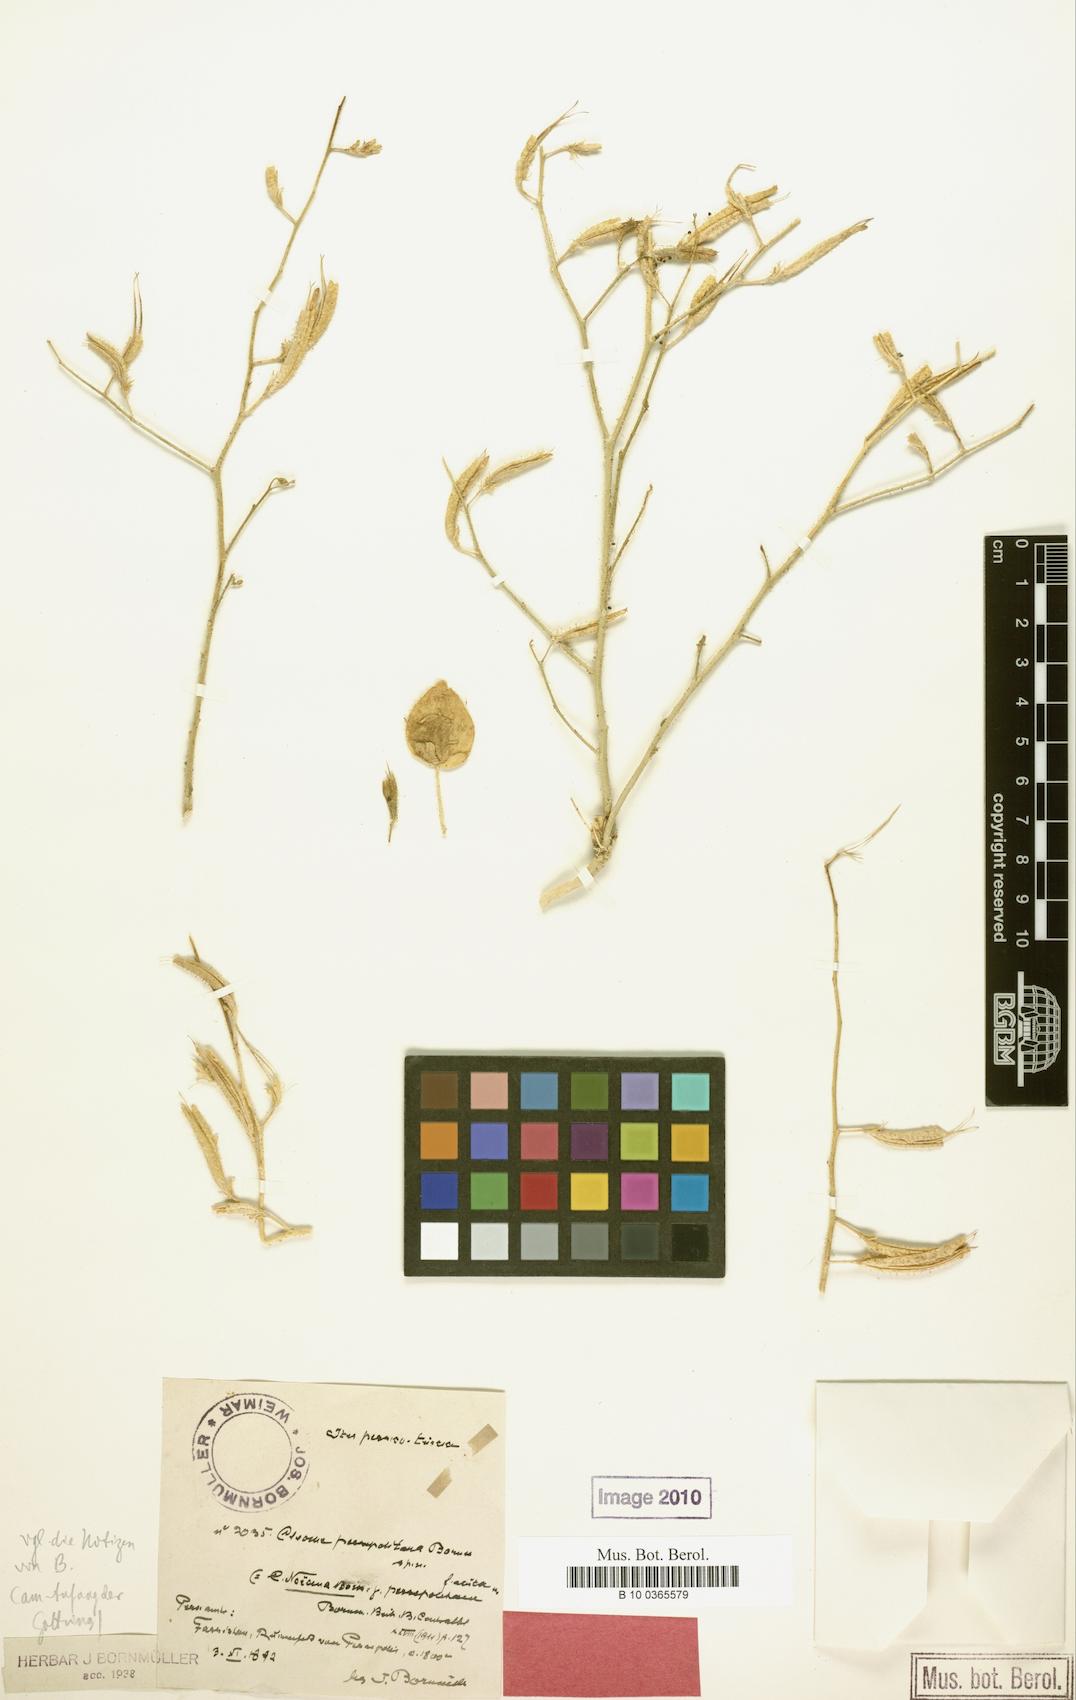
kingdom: Plantae
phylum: Tracheophyta
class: Magnoliopsida
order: Brassicales
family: Cleomaceae
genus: Rorida
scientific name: Rorida quinquenervia
